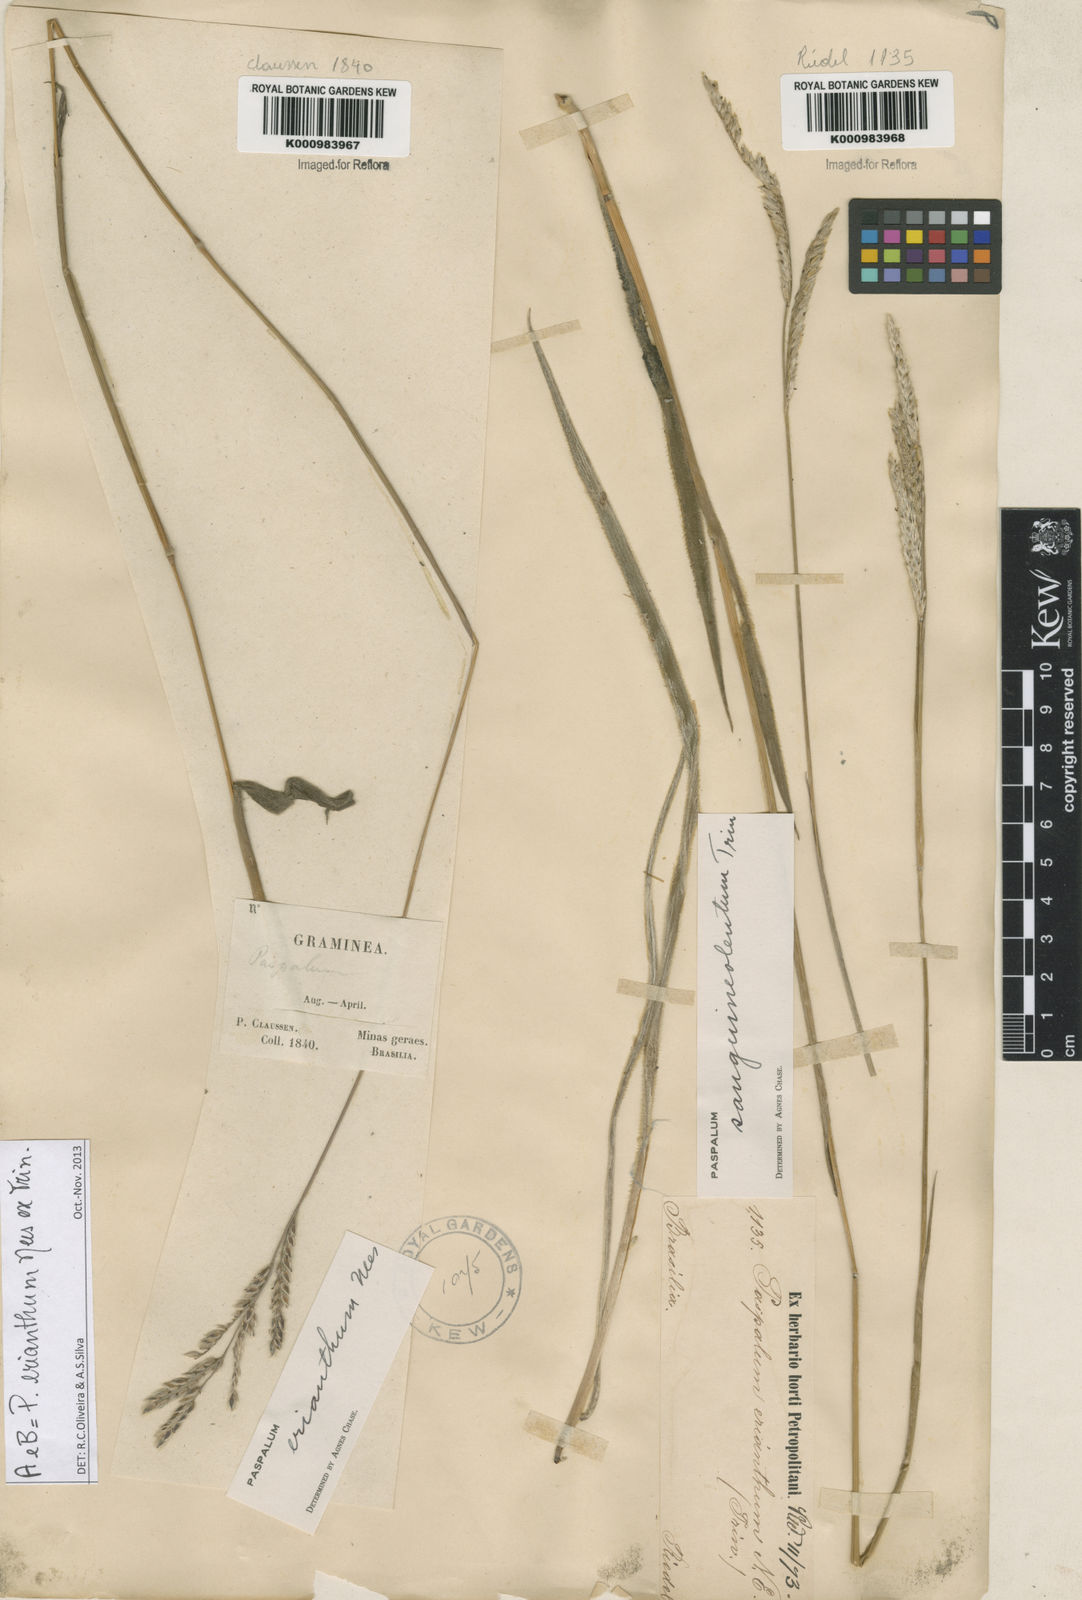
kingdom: Plantae
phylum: Tracheophyta
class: Liliopsida
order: Poales
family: Poaceae
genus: Paspalum
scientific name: Paspalum erianthum
